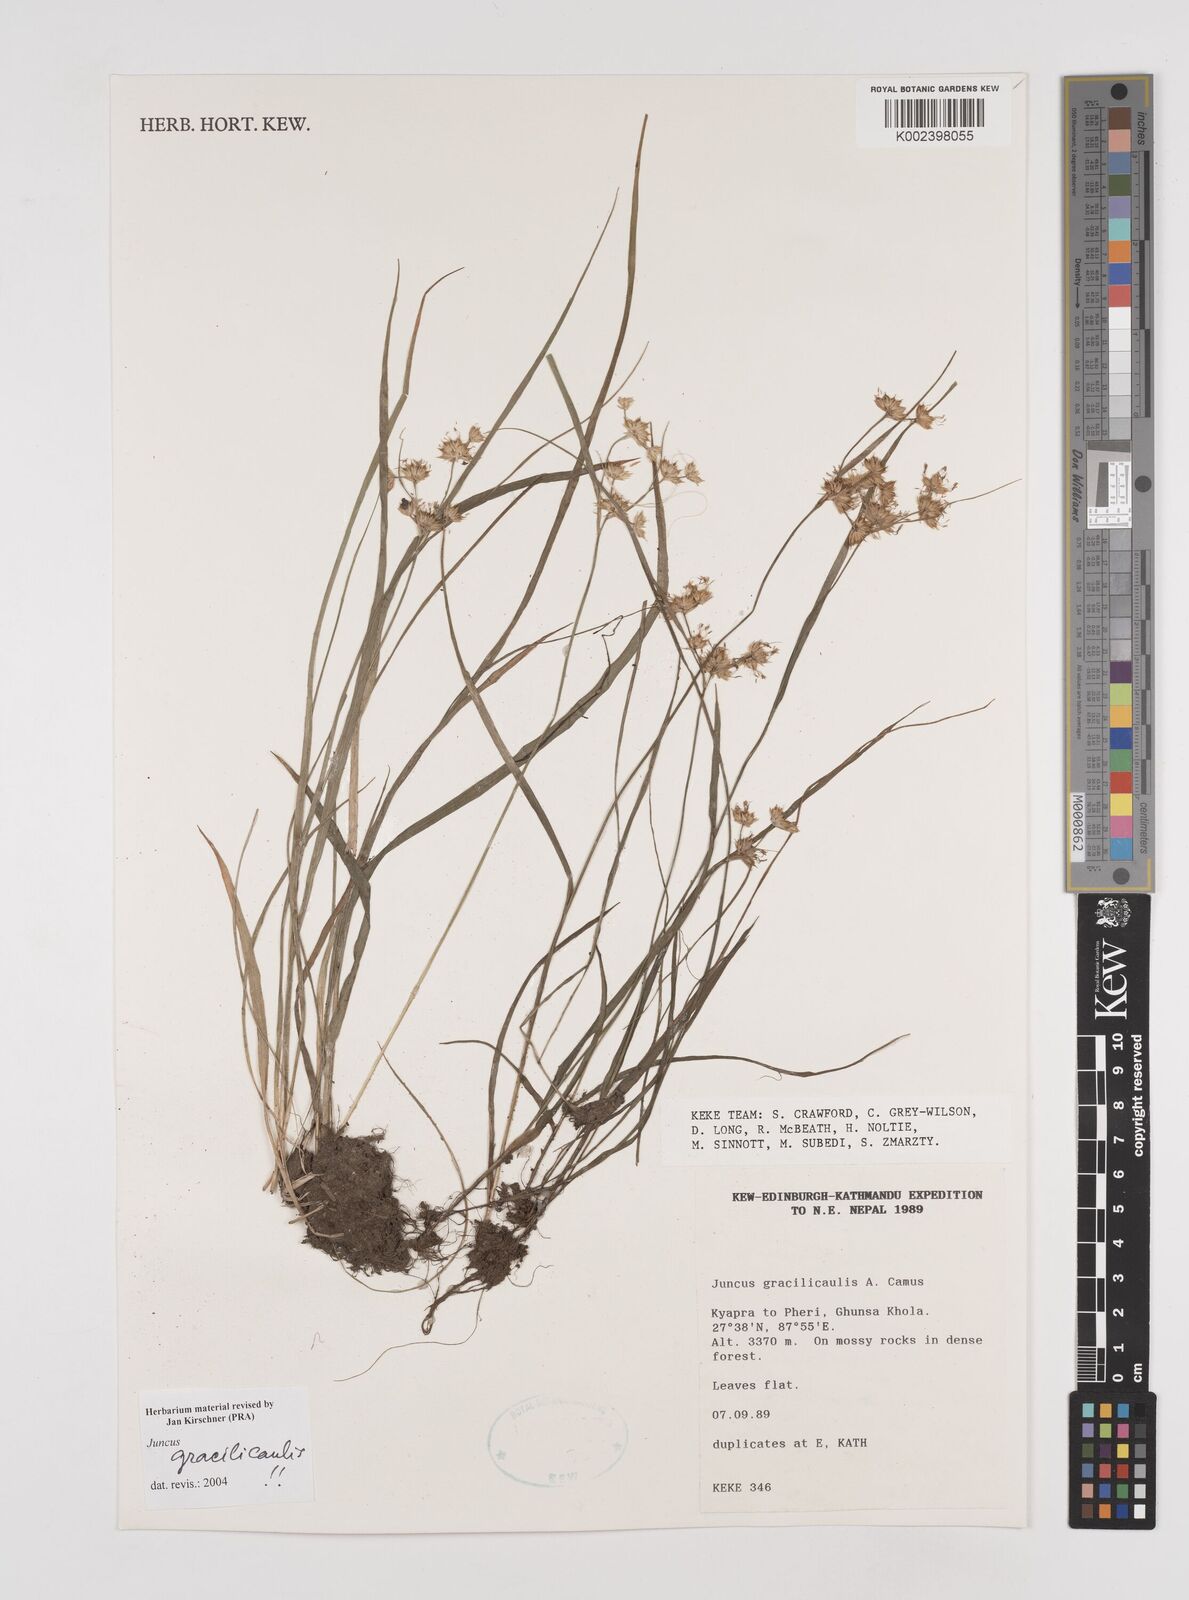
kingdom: Plantae
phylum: Tracheophyta
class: Liliopsida
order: Poales
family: Juncaceae
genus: Juncus
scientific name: Juncus gracilicaulis
